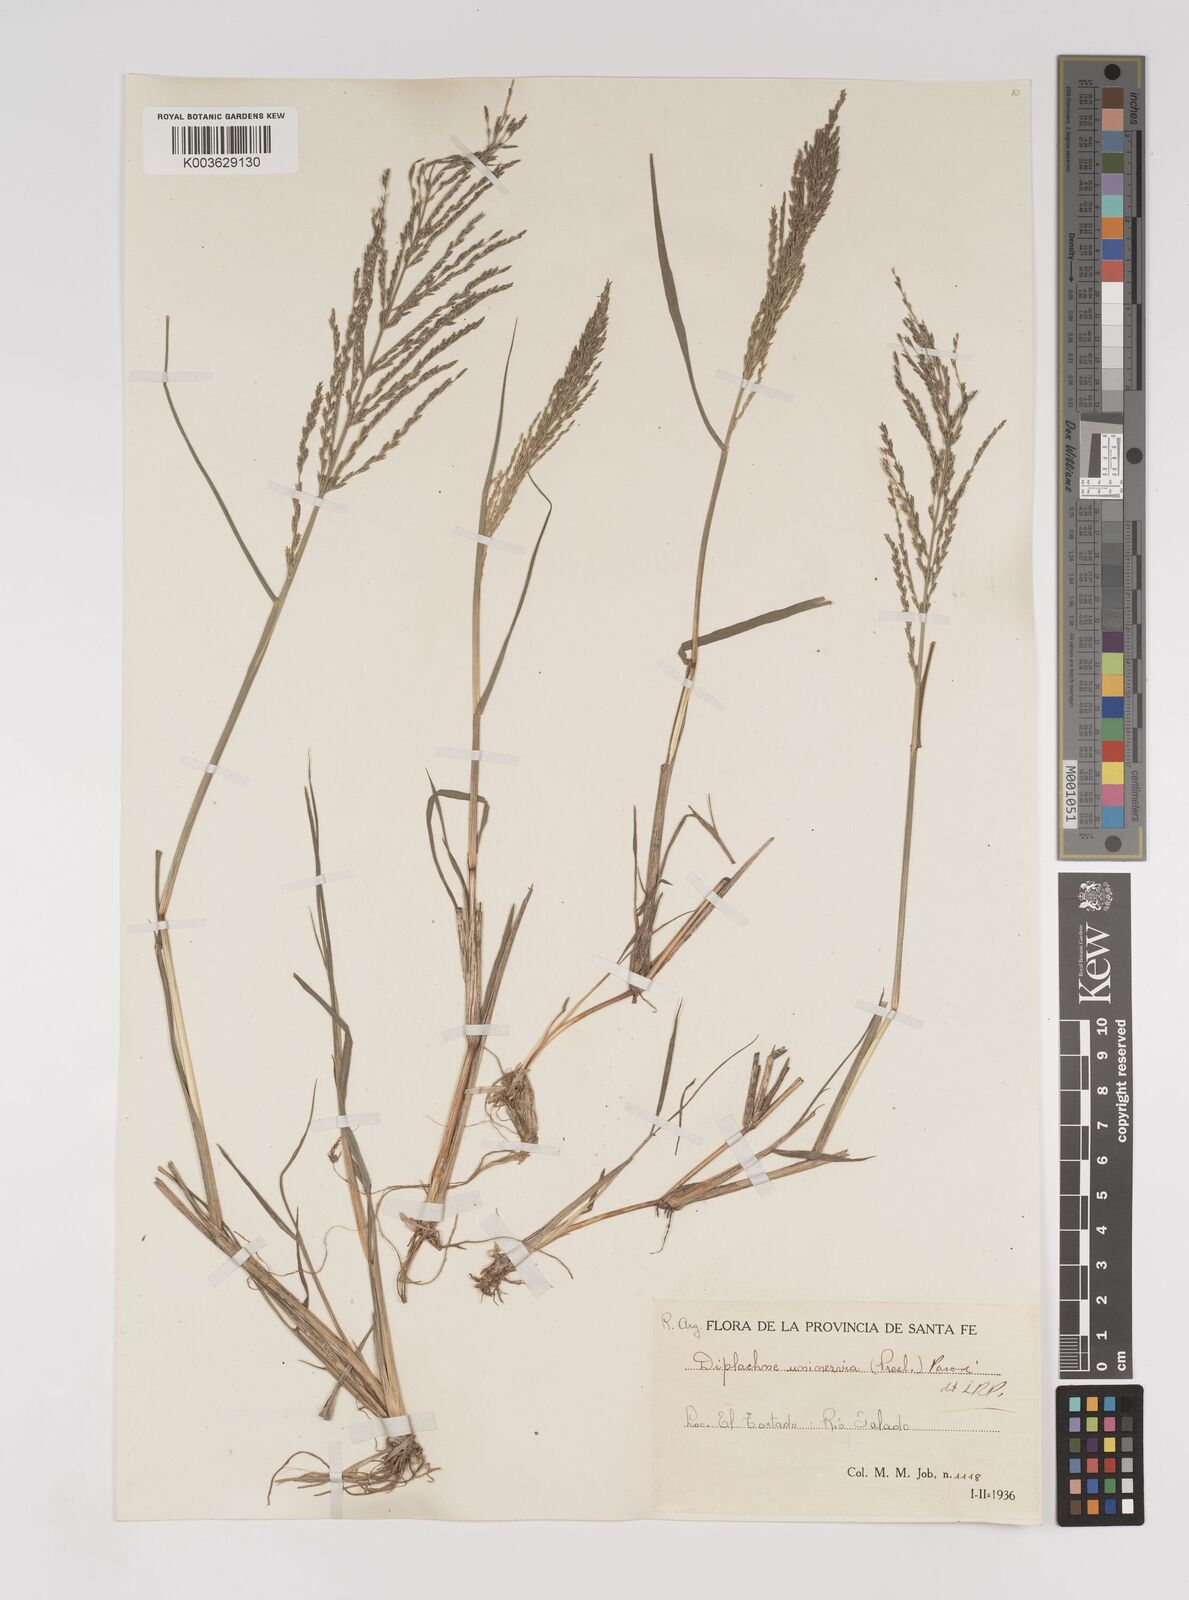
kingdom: Plantae
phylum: Tracheophyta
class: Liliopsida
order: Poales
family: Poaceae
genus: Diplachne
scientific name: Diplachne fusca
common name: Brown beetle grass
